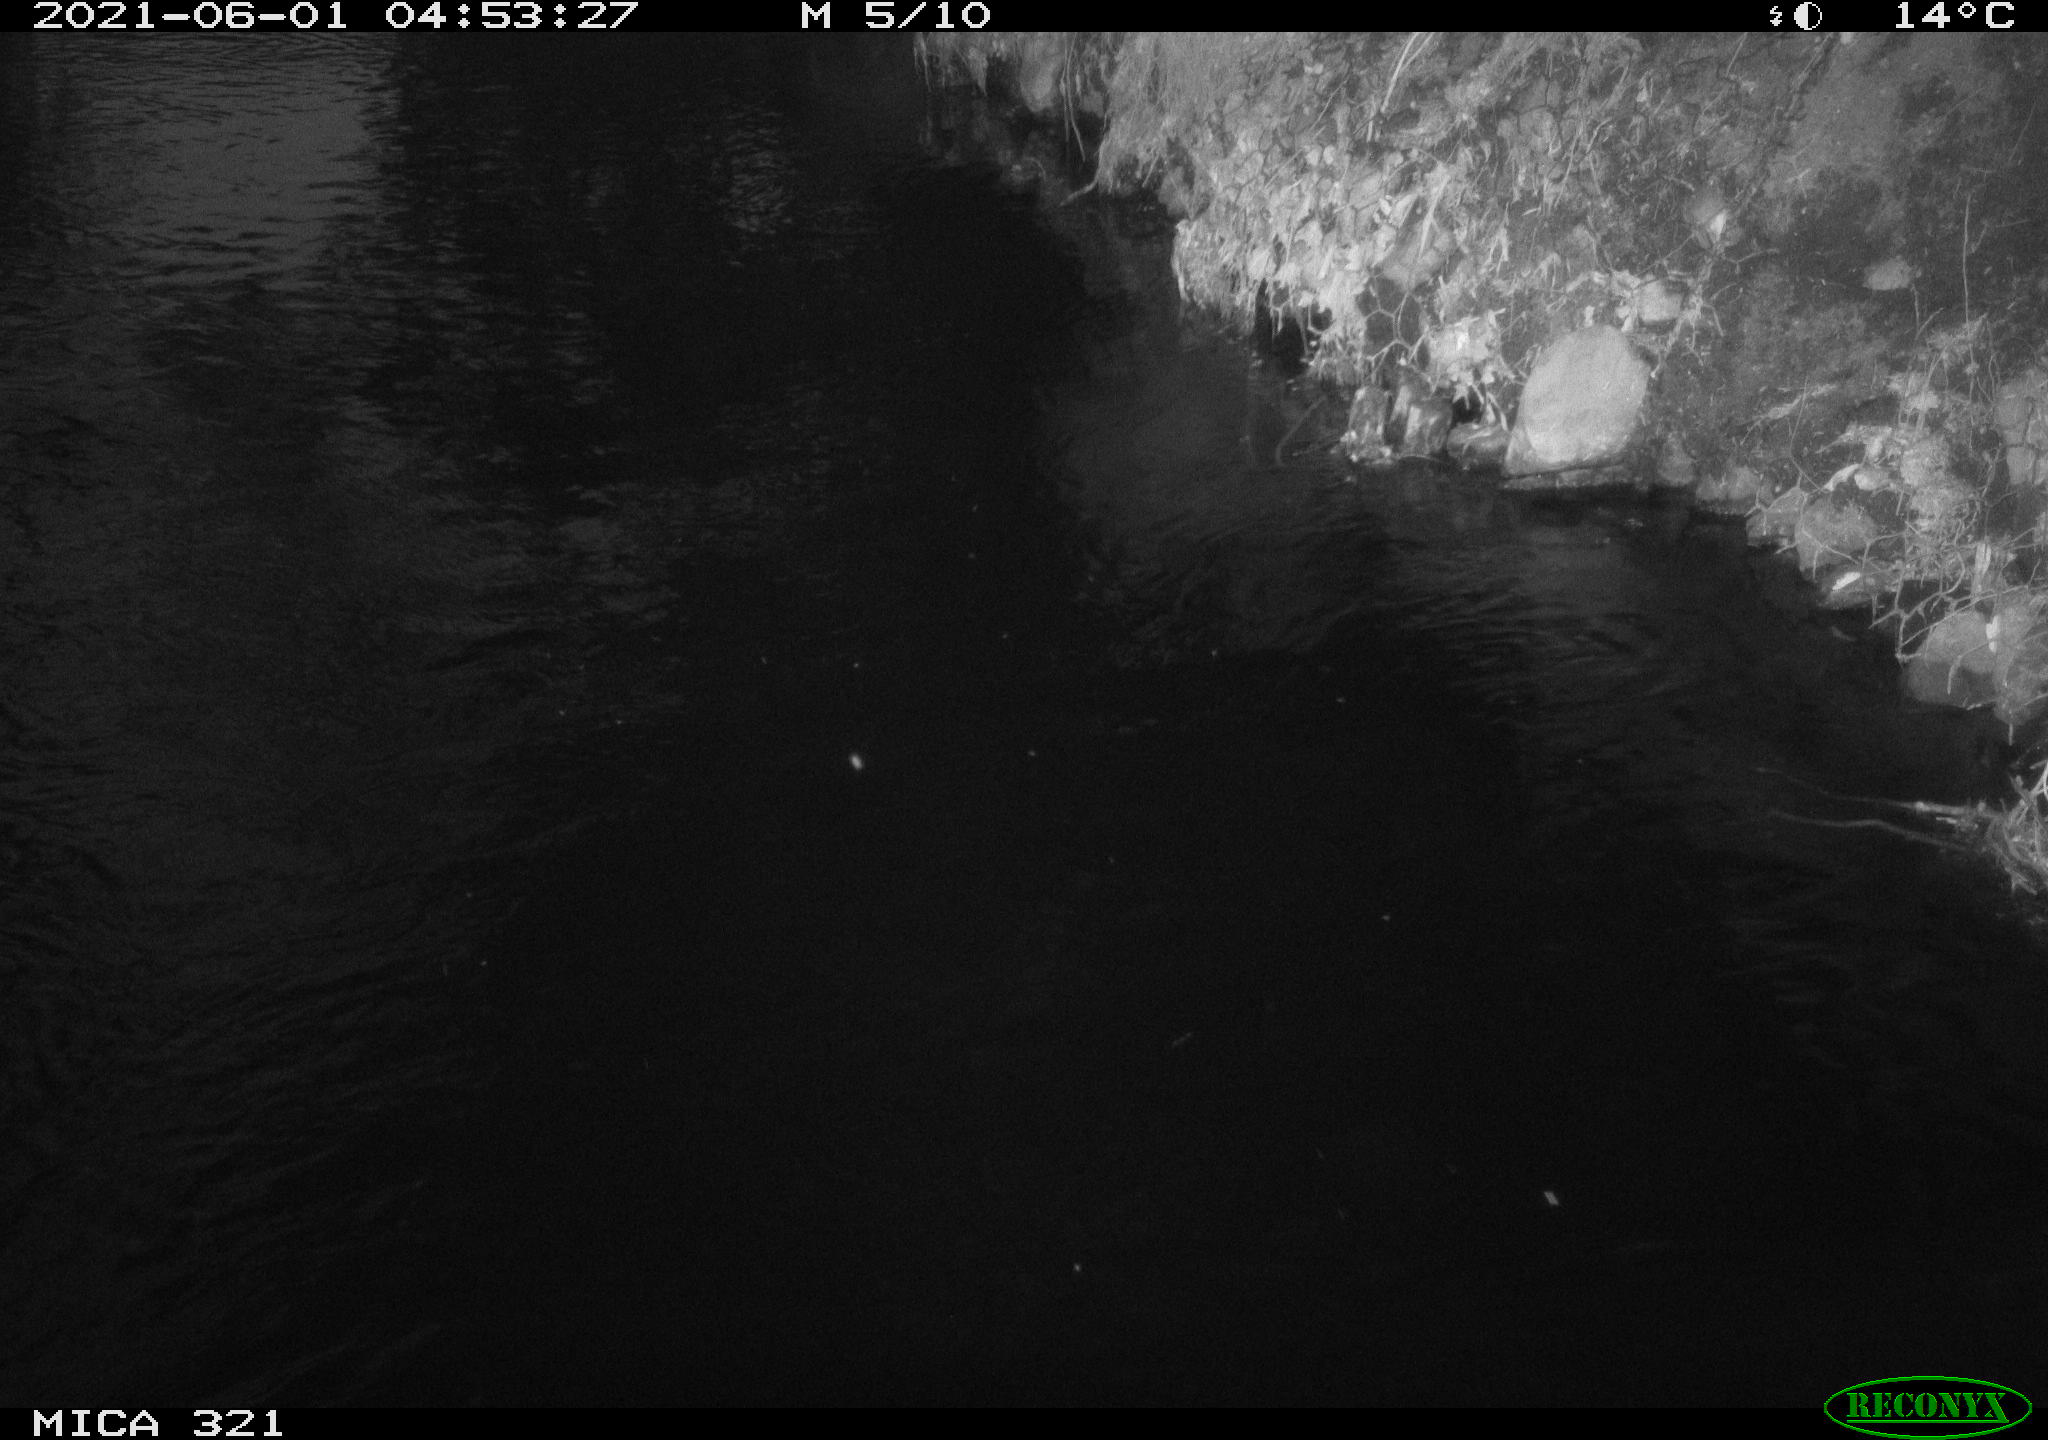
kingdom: Animalia
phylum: Chordata
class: Aves
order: Anseriformes
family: Anatidae
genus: Anas
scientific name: Anas platyrhynchos
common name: Mallard
